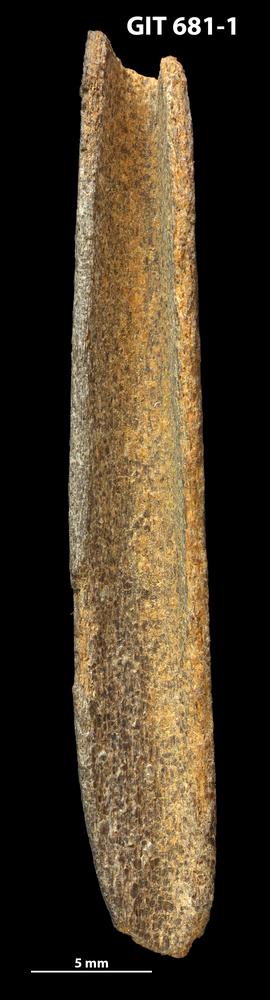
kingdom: Animalia
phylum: Chordata
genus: Hybosteus
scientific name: Hybosteus
